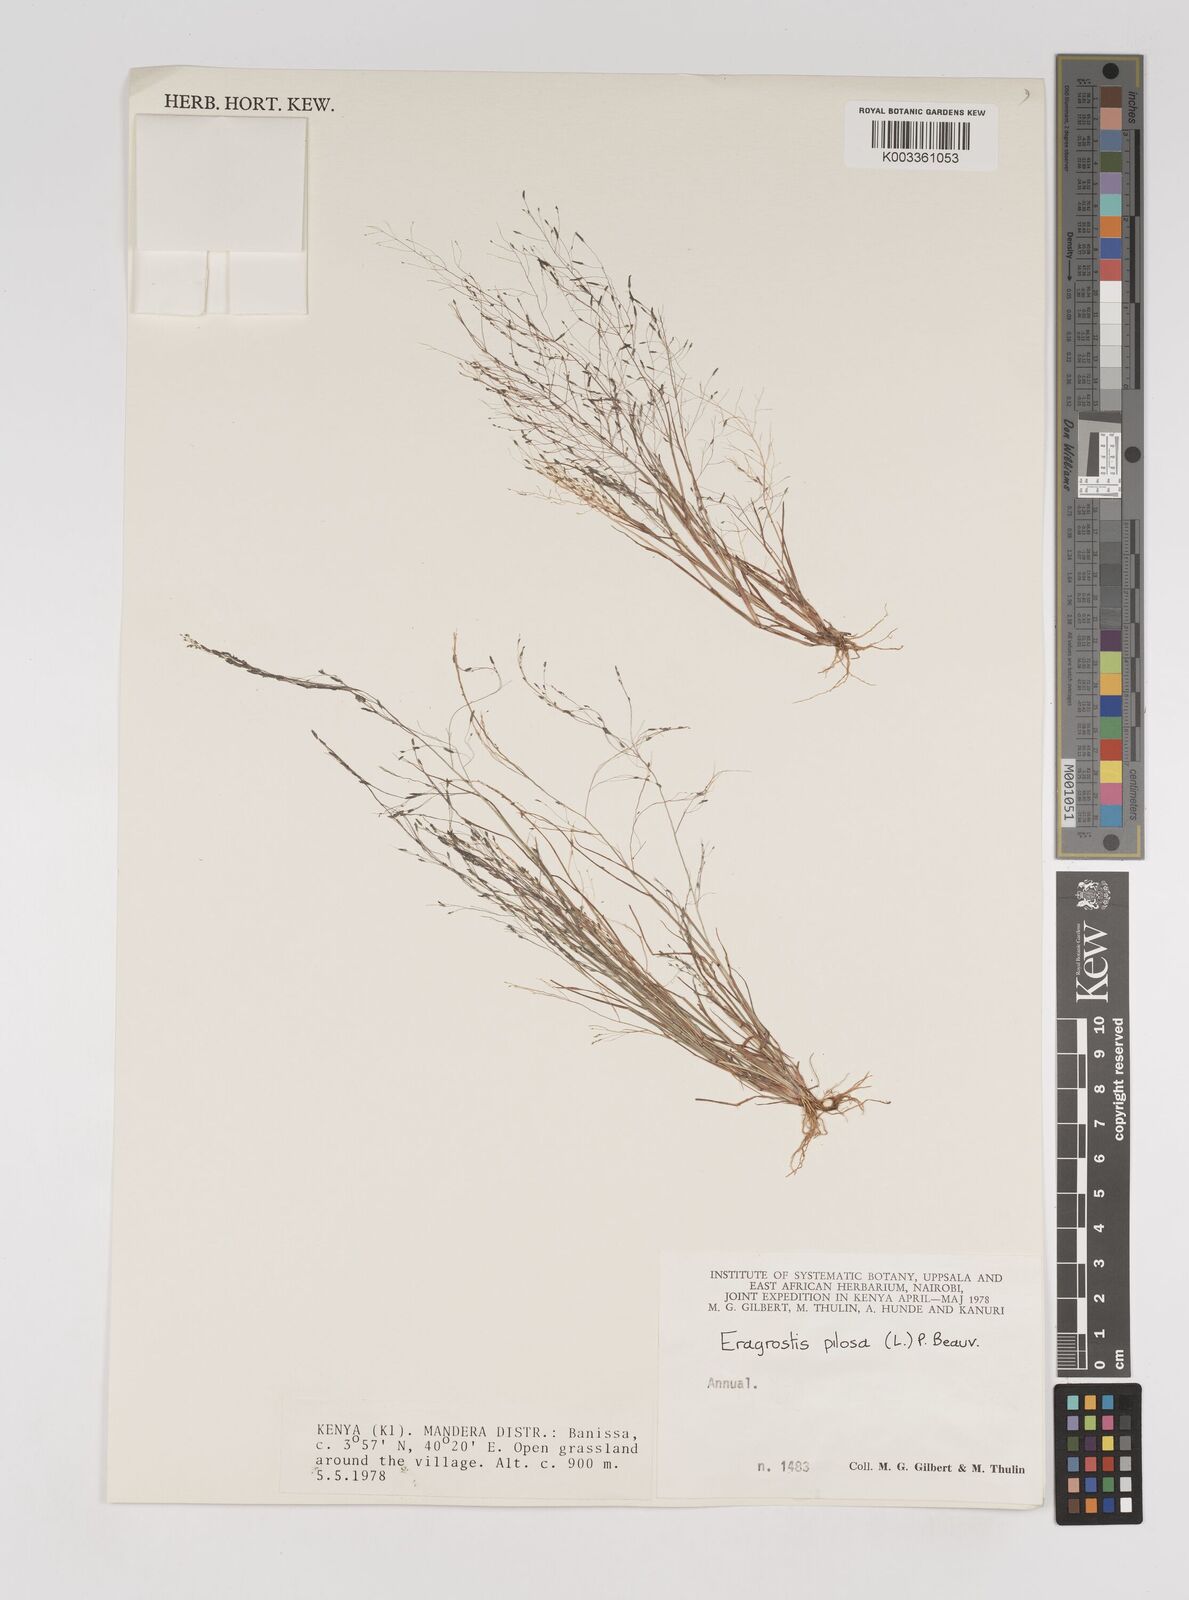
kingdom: Plantae
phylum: Tracheophyta
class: Liliopsida
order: Poales
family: Poaceae
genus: Eragrostis
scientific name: Eragrostis aethiopica
